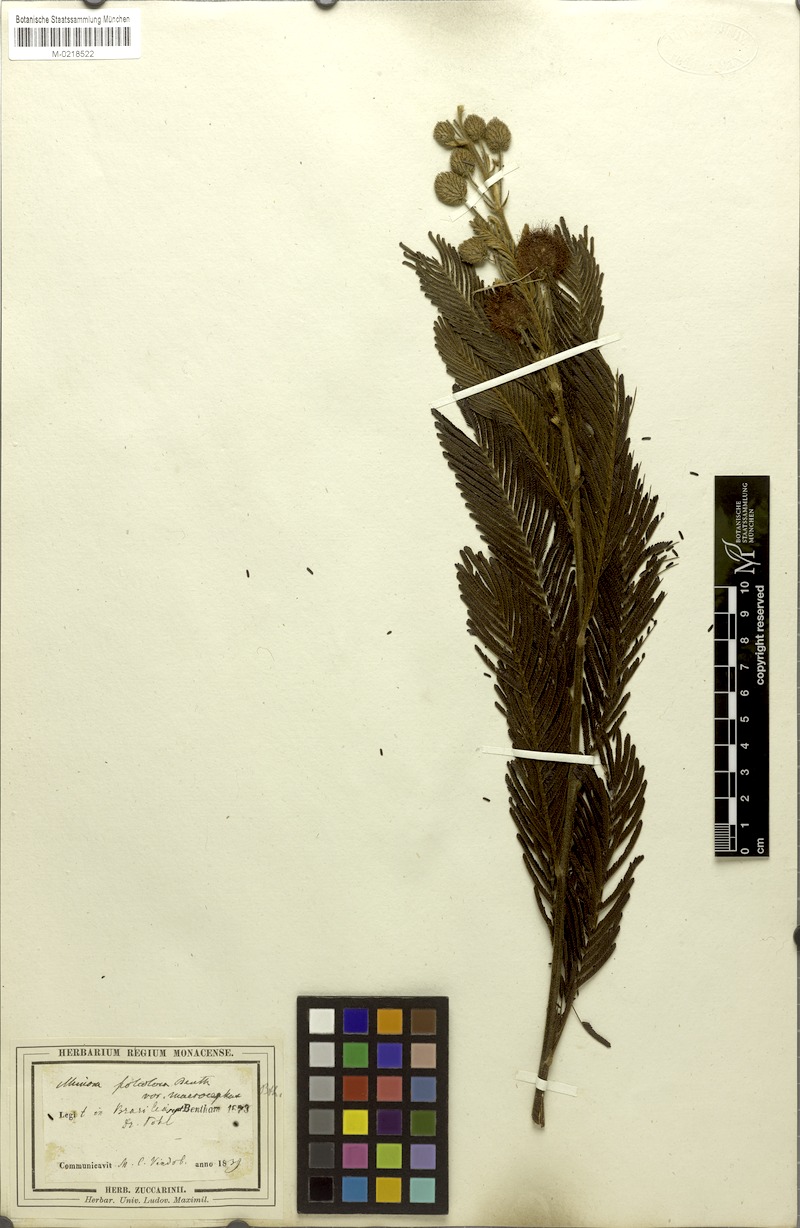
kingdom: Plantae
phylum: Tracheophyta
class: Magnoliopsida
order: Fabales
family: Fabaceae
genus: Mimosa
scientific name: Mimosa foliolosa
